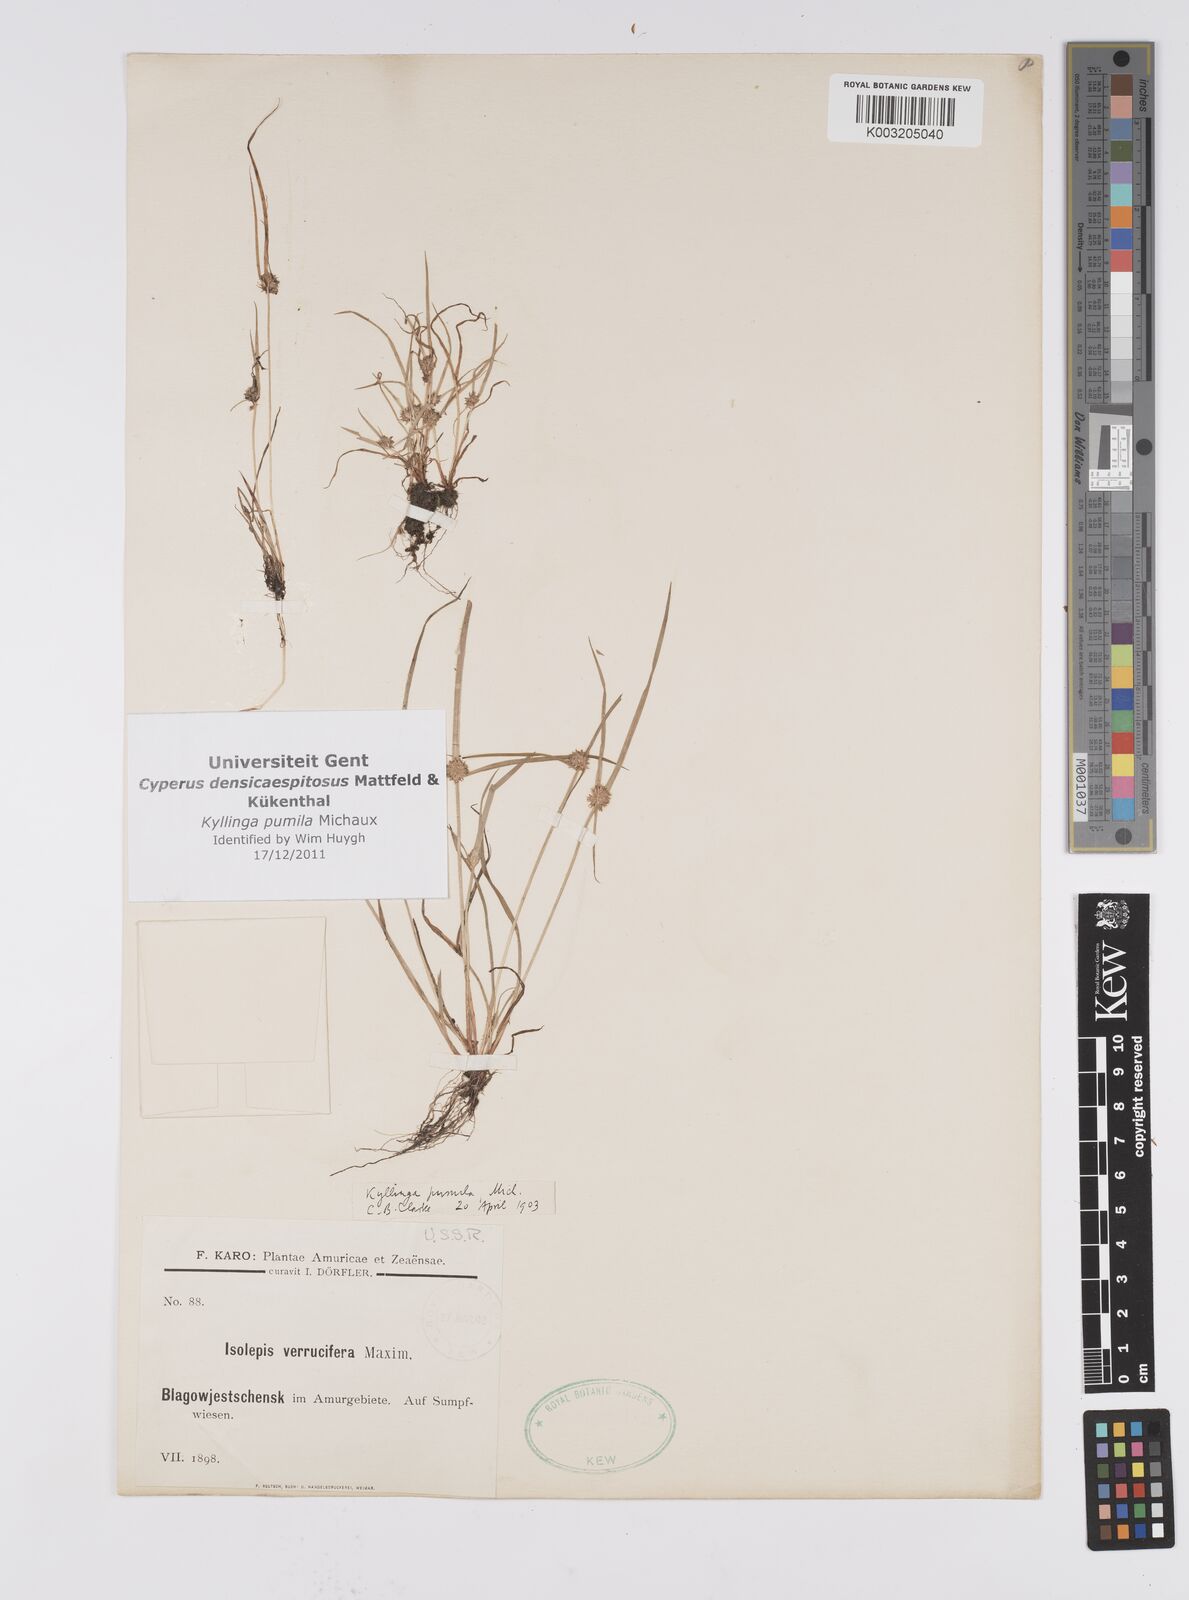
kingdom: Plantae
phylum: Tracheophyta
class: Liliopsida
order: Poales
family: Cyperaceae
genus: Cyperus
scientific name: Cyperus
